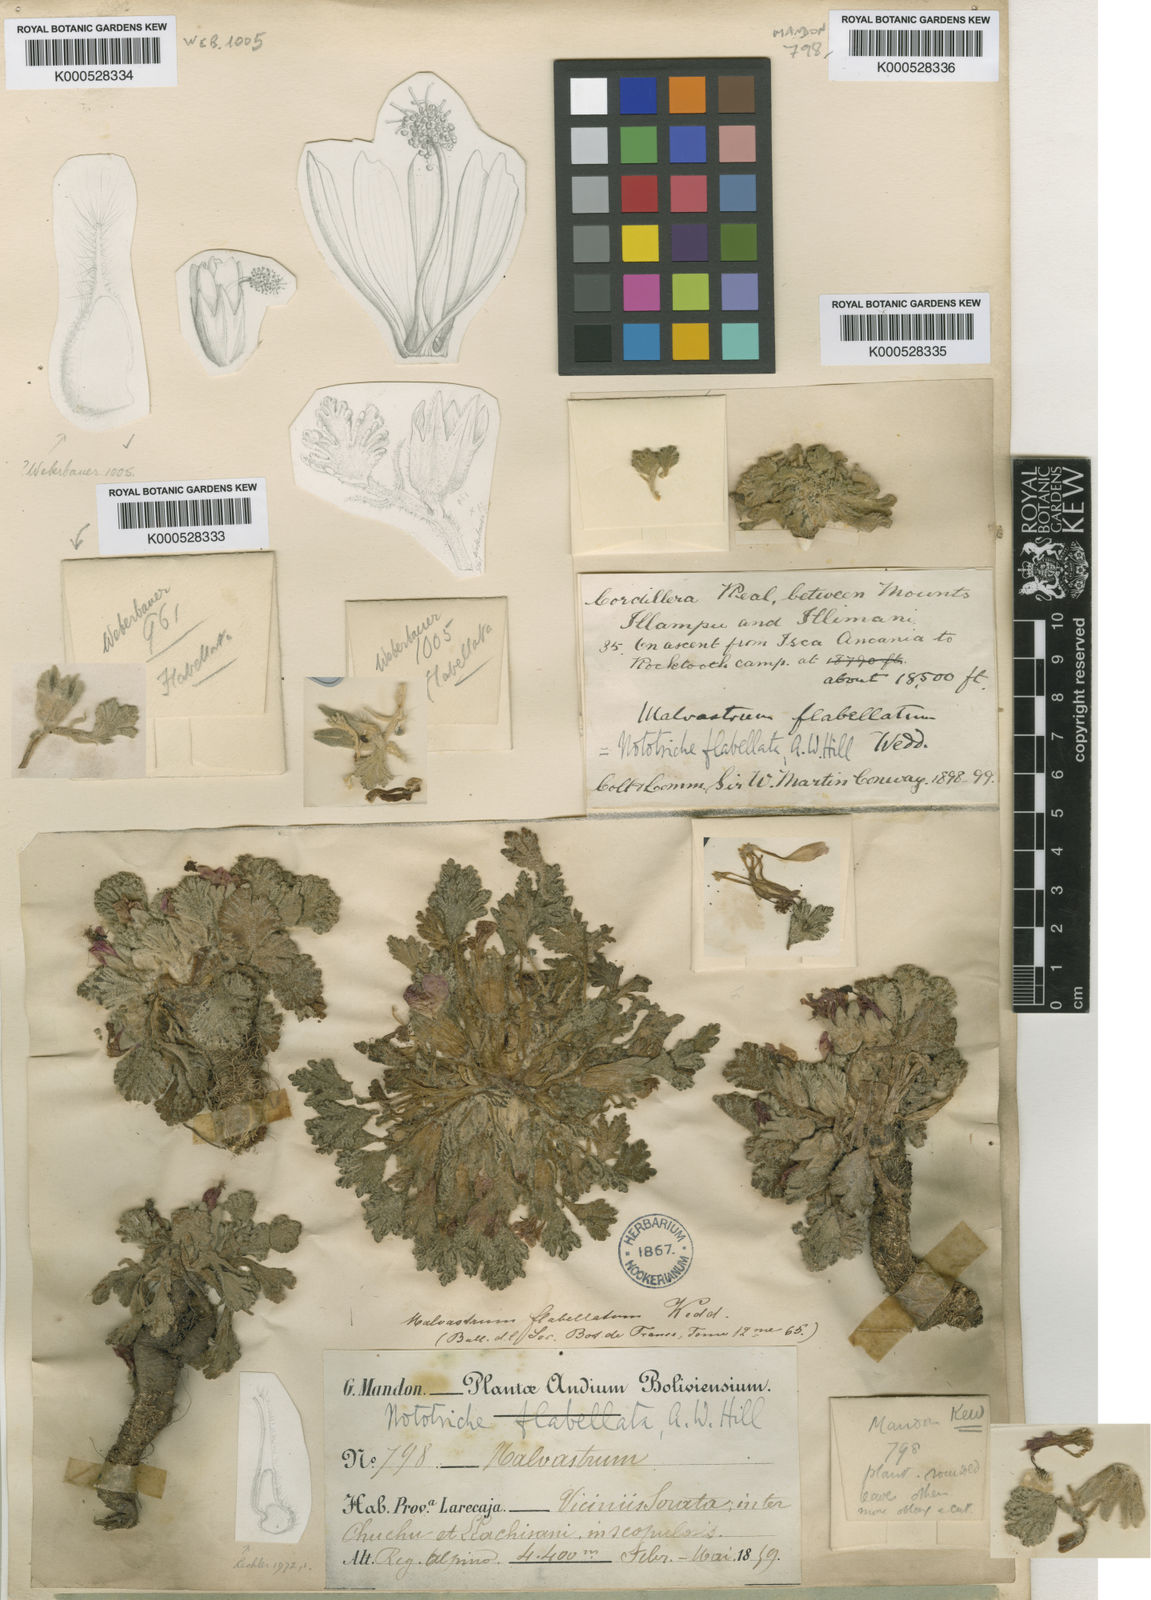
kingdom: Plantae
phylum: Tracheophyta
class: Magnoliopsida
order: Malvales
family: Malvaceae
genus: Nototriche
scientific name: Nototriche flabellata
